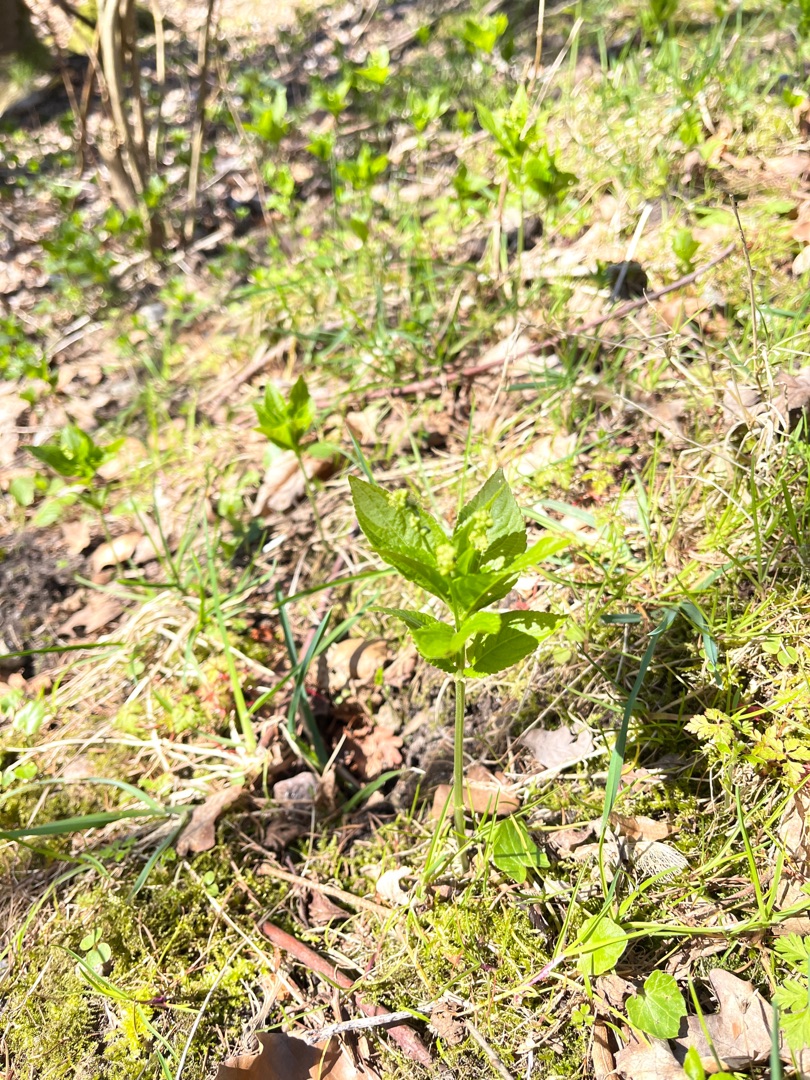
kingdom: Plantae
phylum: Tracheophyta
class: Magnoliopsida
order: Malpighiales
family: Euphorbiaceae
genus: Mercurialis
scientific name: Mercurialis perennis
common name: Almindelig bingelurt
